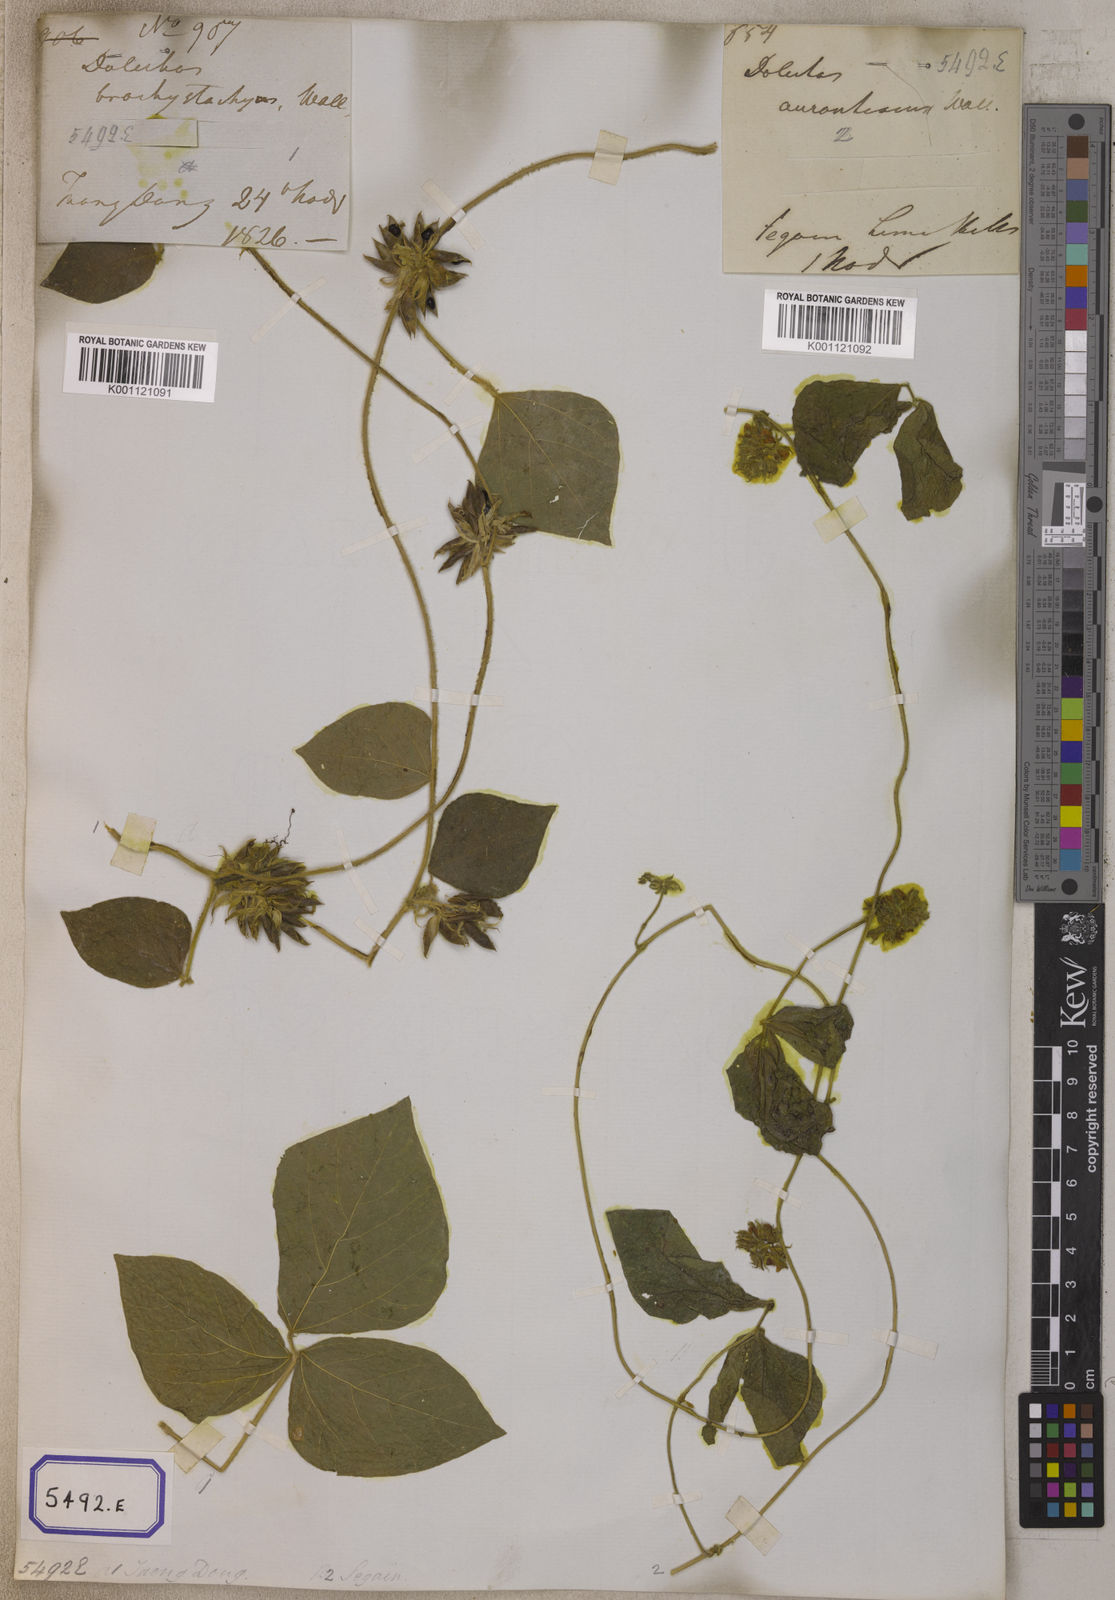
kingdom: Plantae
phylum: Tracheophyta
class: Magnoliopsida
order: Fabales
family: Fabaceae
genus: Rhynchosia
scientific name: Rhynchosia aurea
